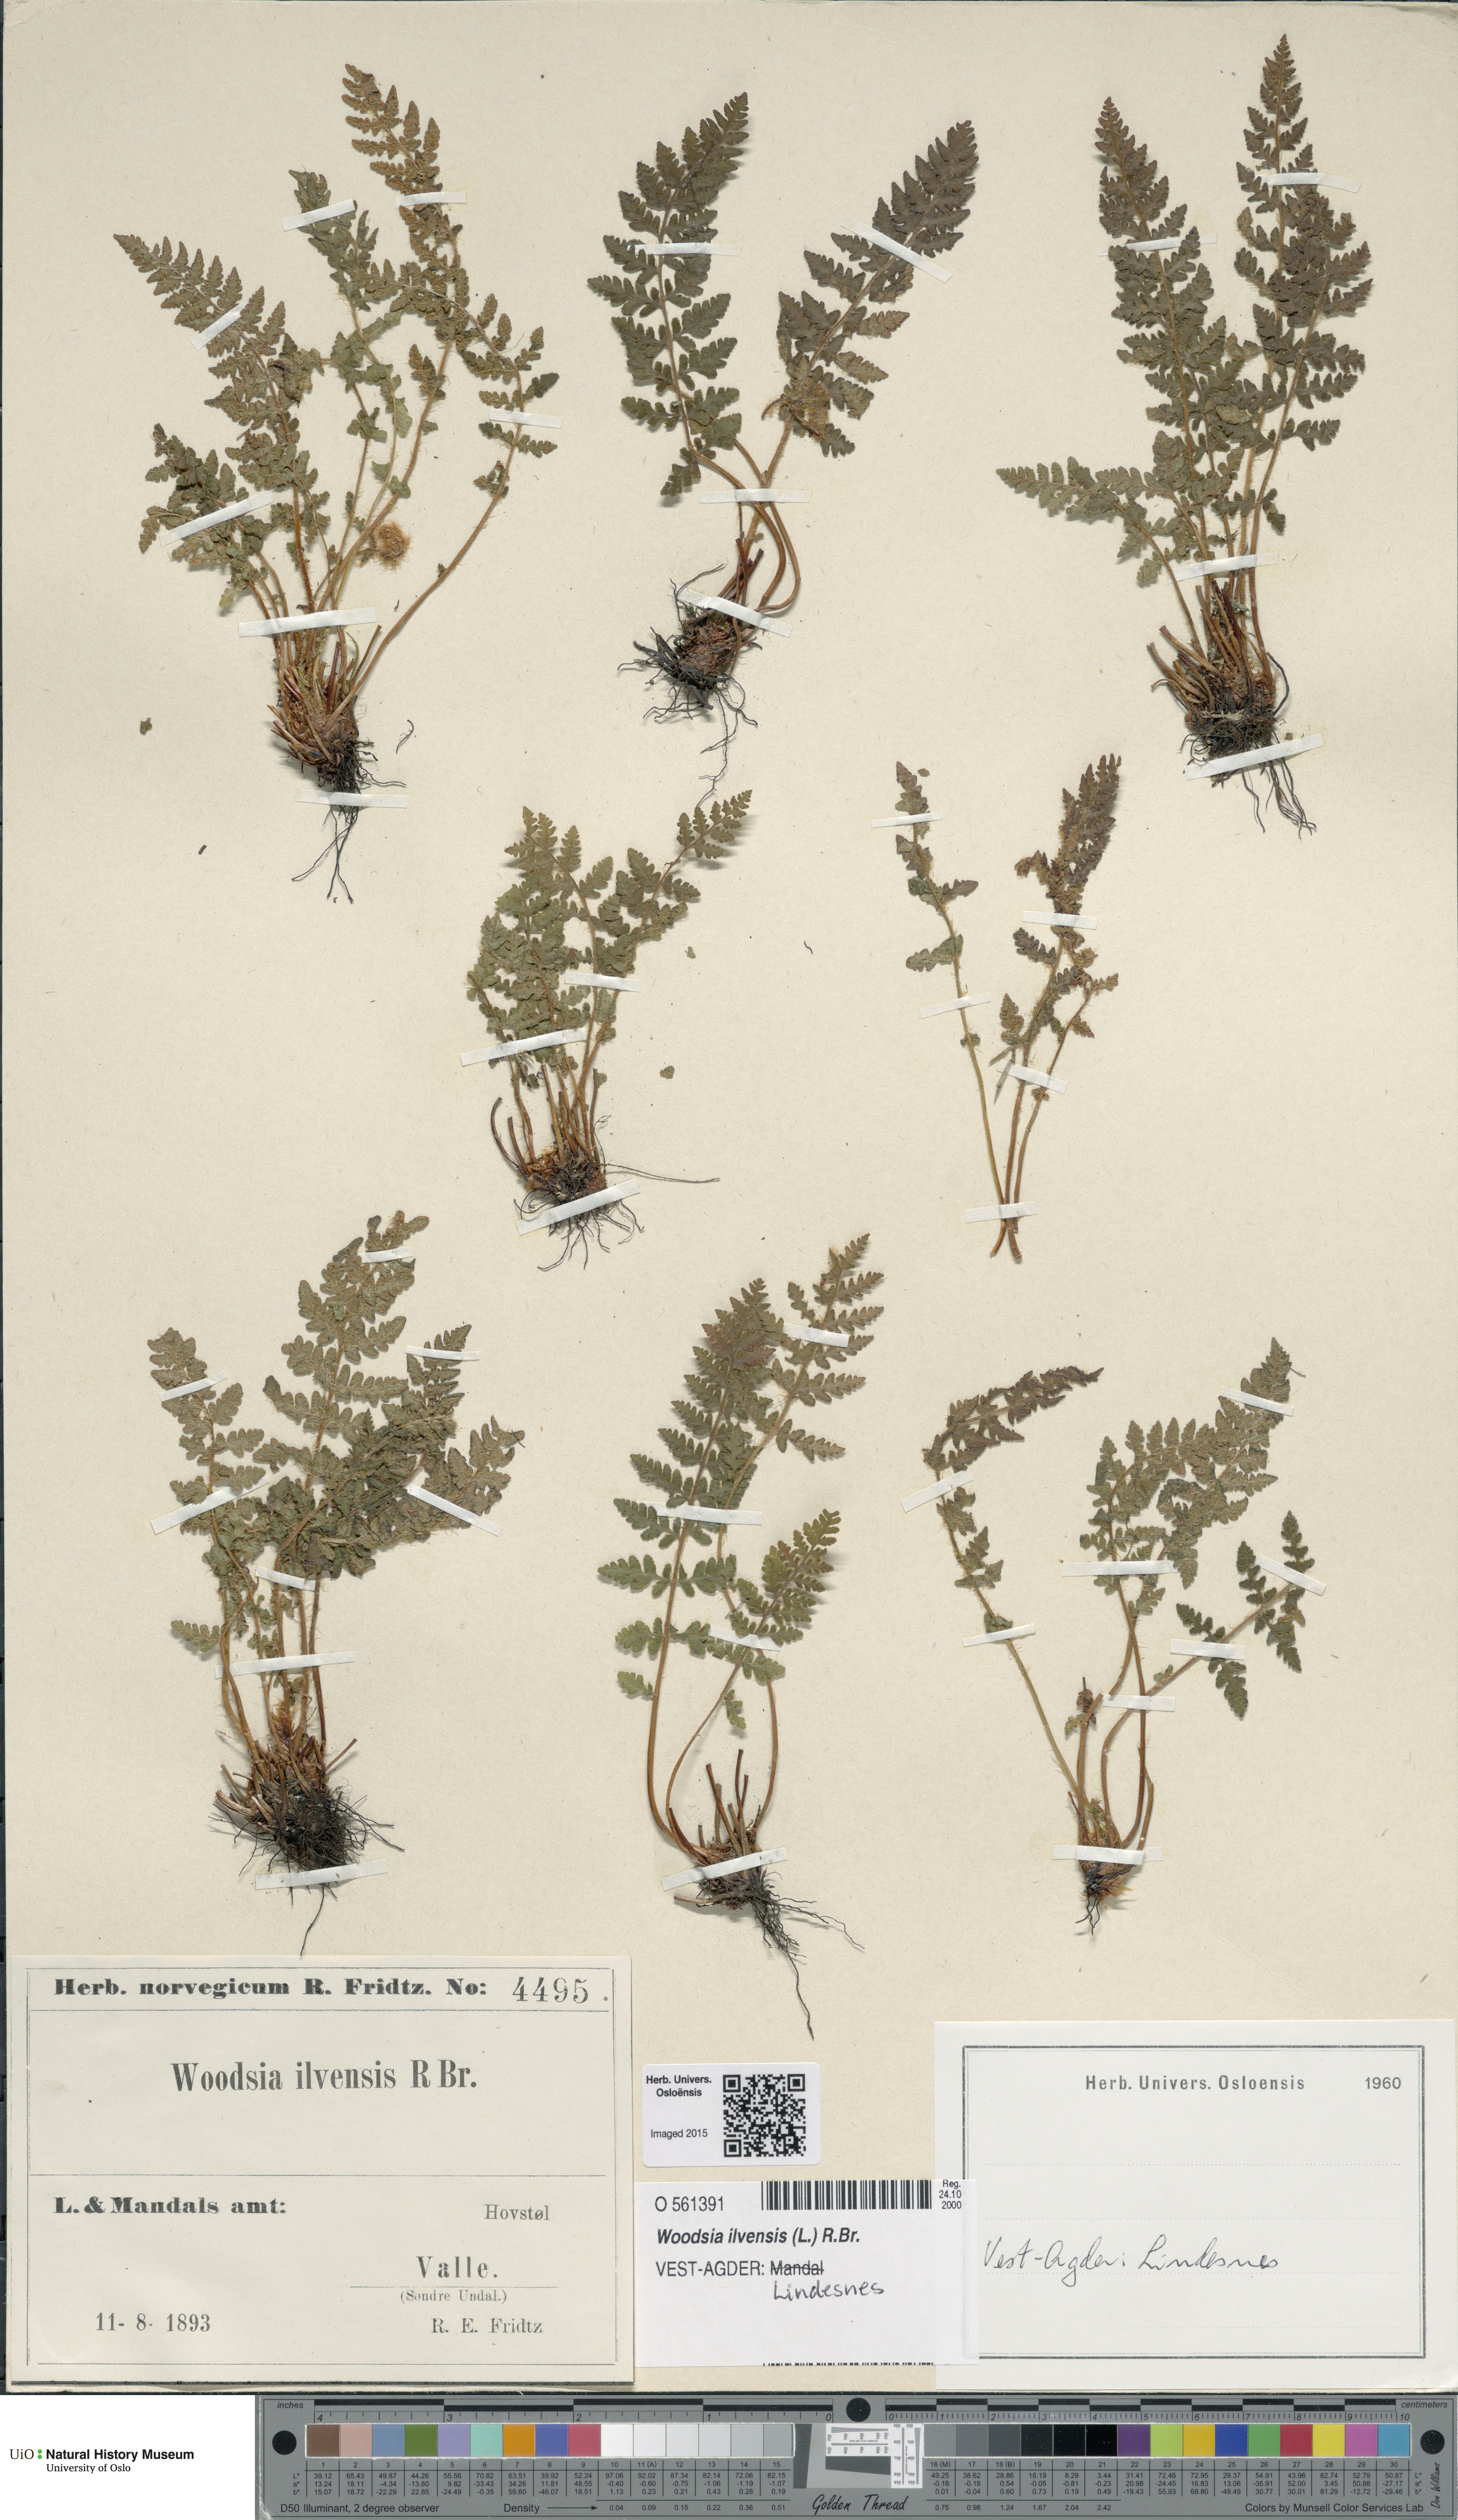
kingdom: Plantae
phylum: Tracheophyta
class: Polypodiopsida
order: Polypodiales
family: Woodsiaceae
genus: Woodsia
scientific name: Woodsia ilvensis
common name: Fragrant woodsia
